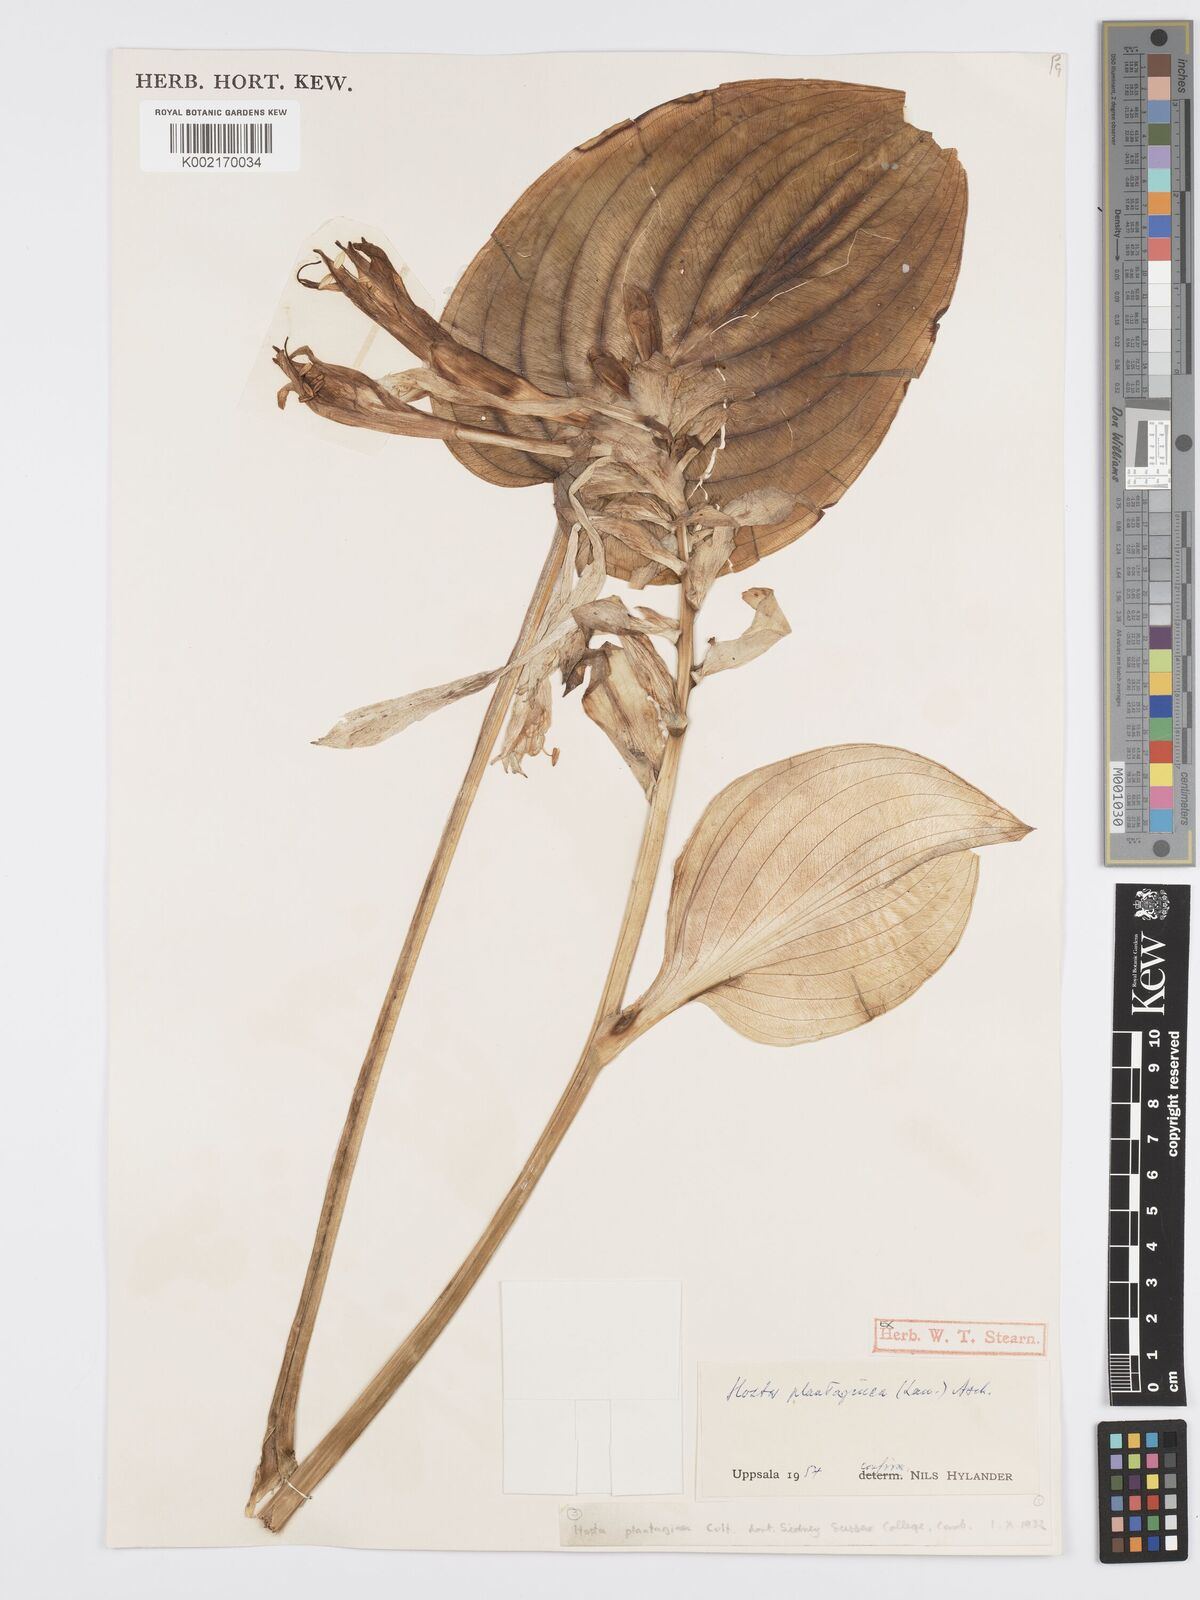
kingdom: Plantae
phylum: Tracheophyta
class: Liliopsida
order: Asparagales
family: Asparagaceae
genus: Hosta
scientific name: Hosta plantaginea
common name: August-lily
